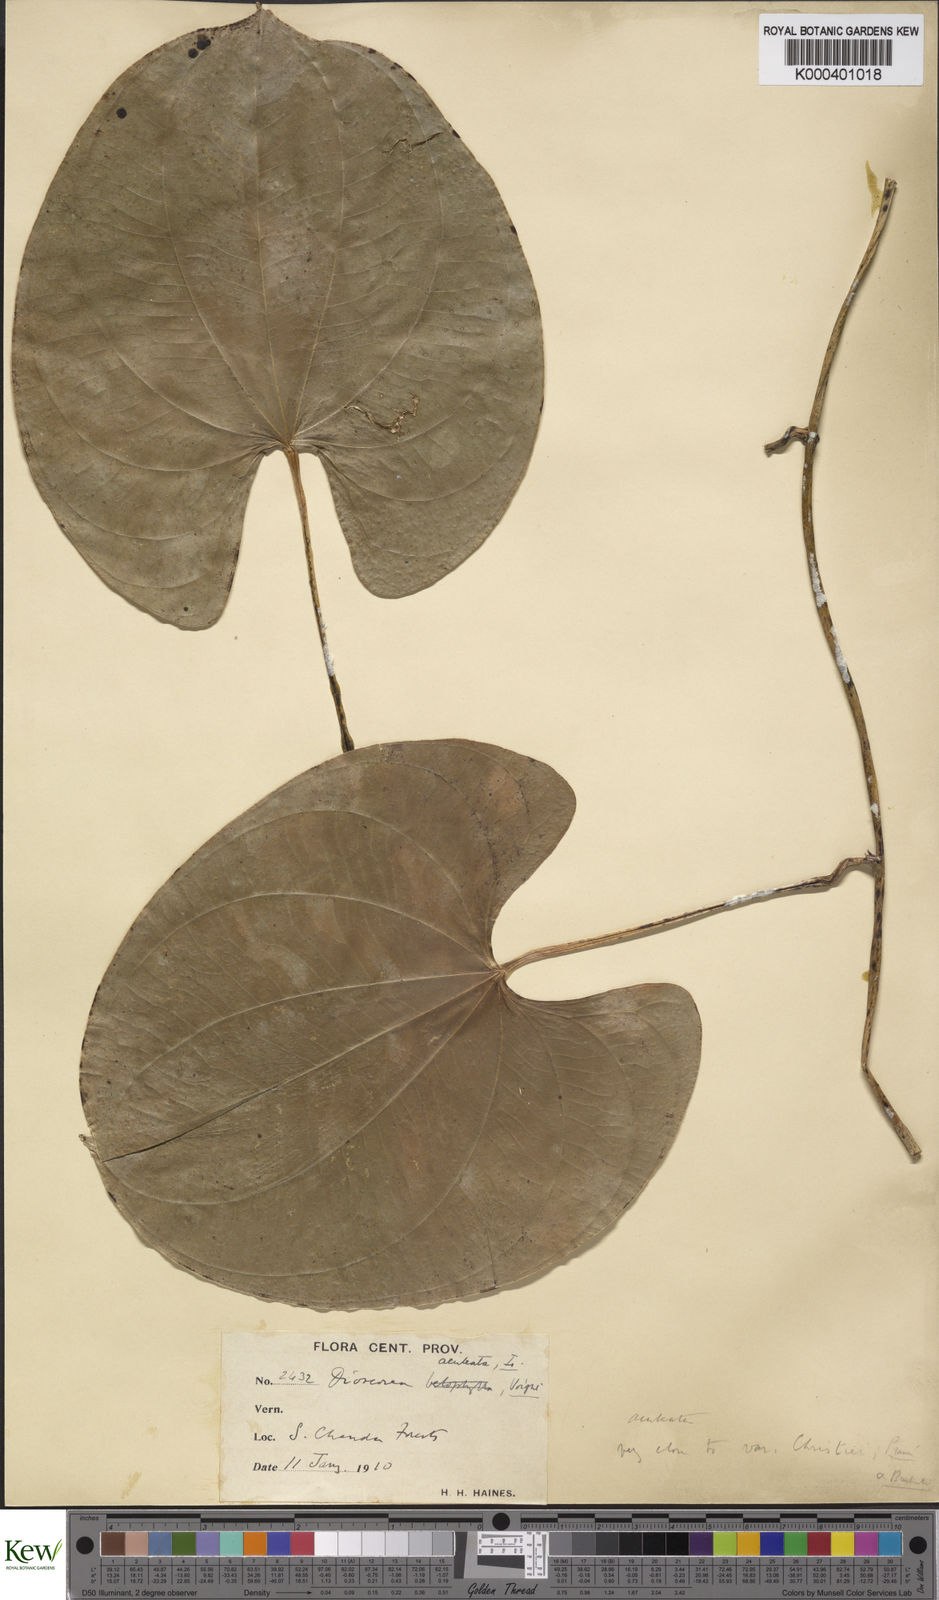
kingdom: Plantae
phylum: Tracheophyta
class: Liliopsida
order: Dioscoreales
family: Dioscoreaceae
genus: Dioscorea
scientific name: Dioscorea wallichii
